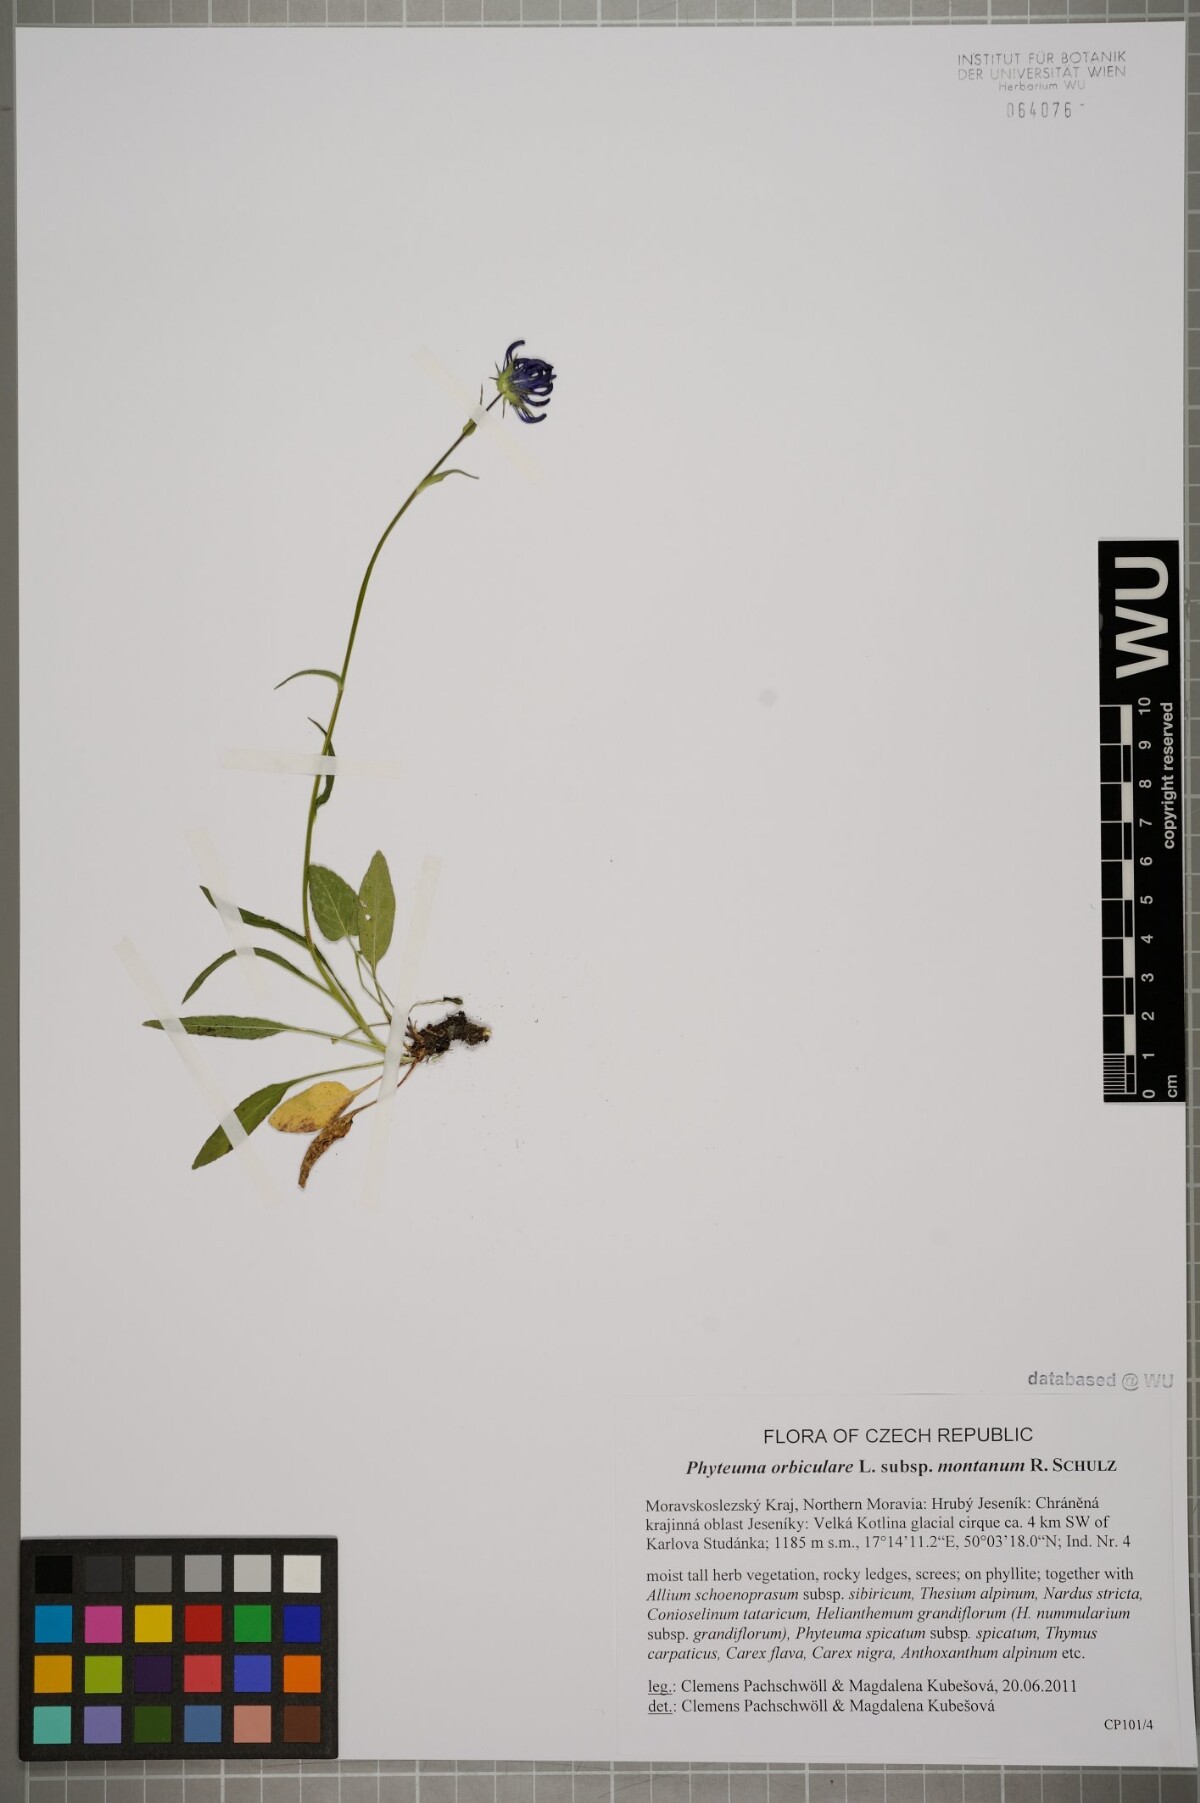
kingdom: Plantae
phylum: Tracheophyta
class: Magnoliopsida
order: Asterales
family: Campanulaceae
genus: Phyteuma
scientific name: Phyteuma orbiculare
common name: Round-headed rampion
